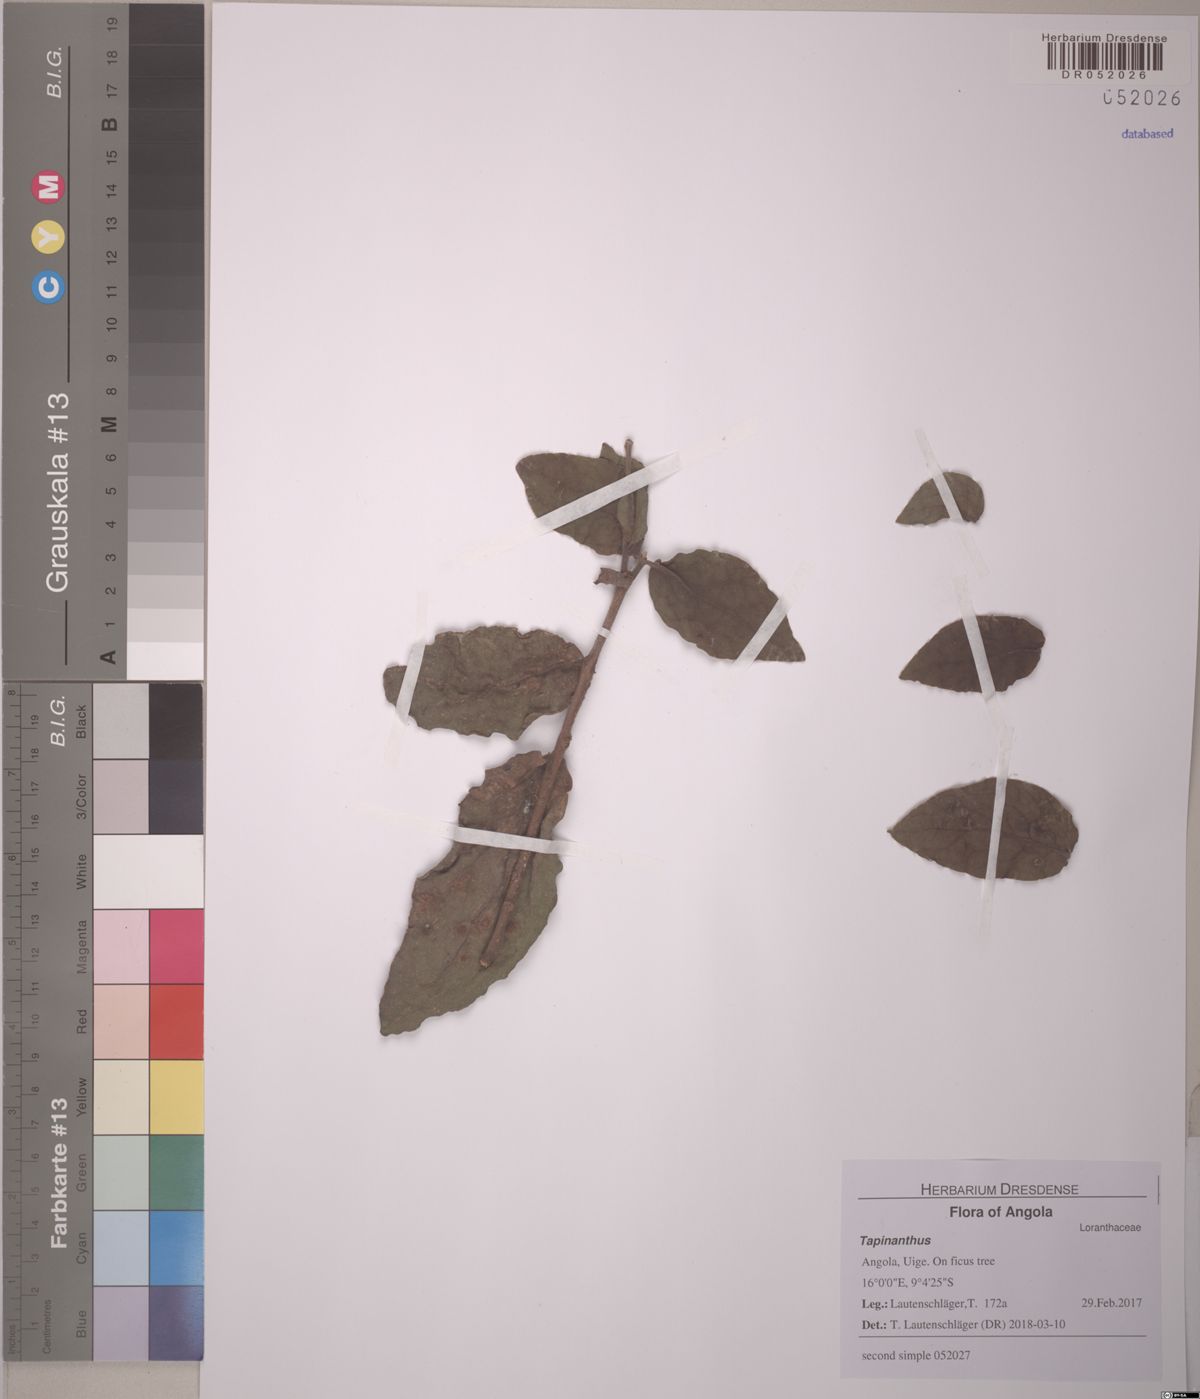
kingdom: Plantae
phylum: Tracheophyta
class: Magnoliopsida
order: Santalales
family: Loranthaceae
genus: Tapinanthus
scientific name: Tapinanthus
